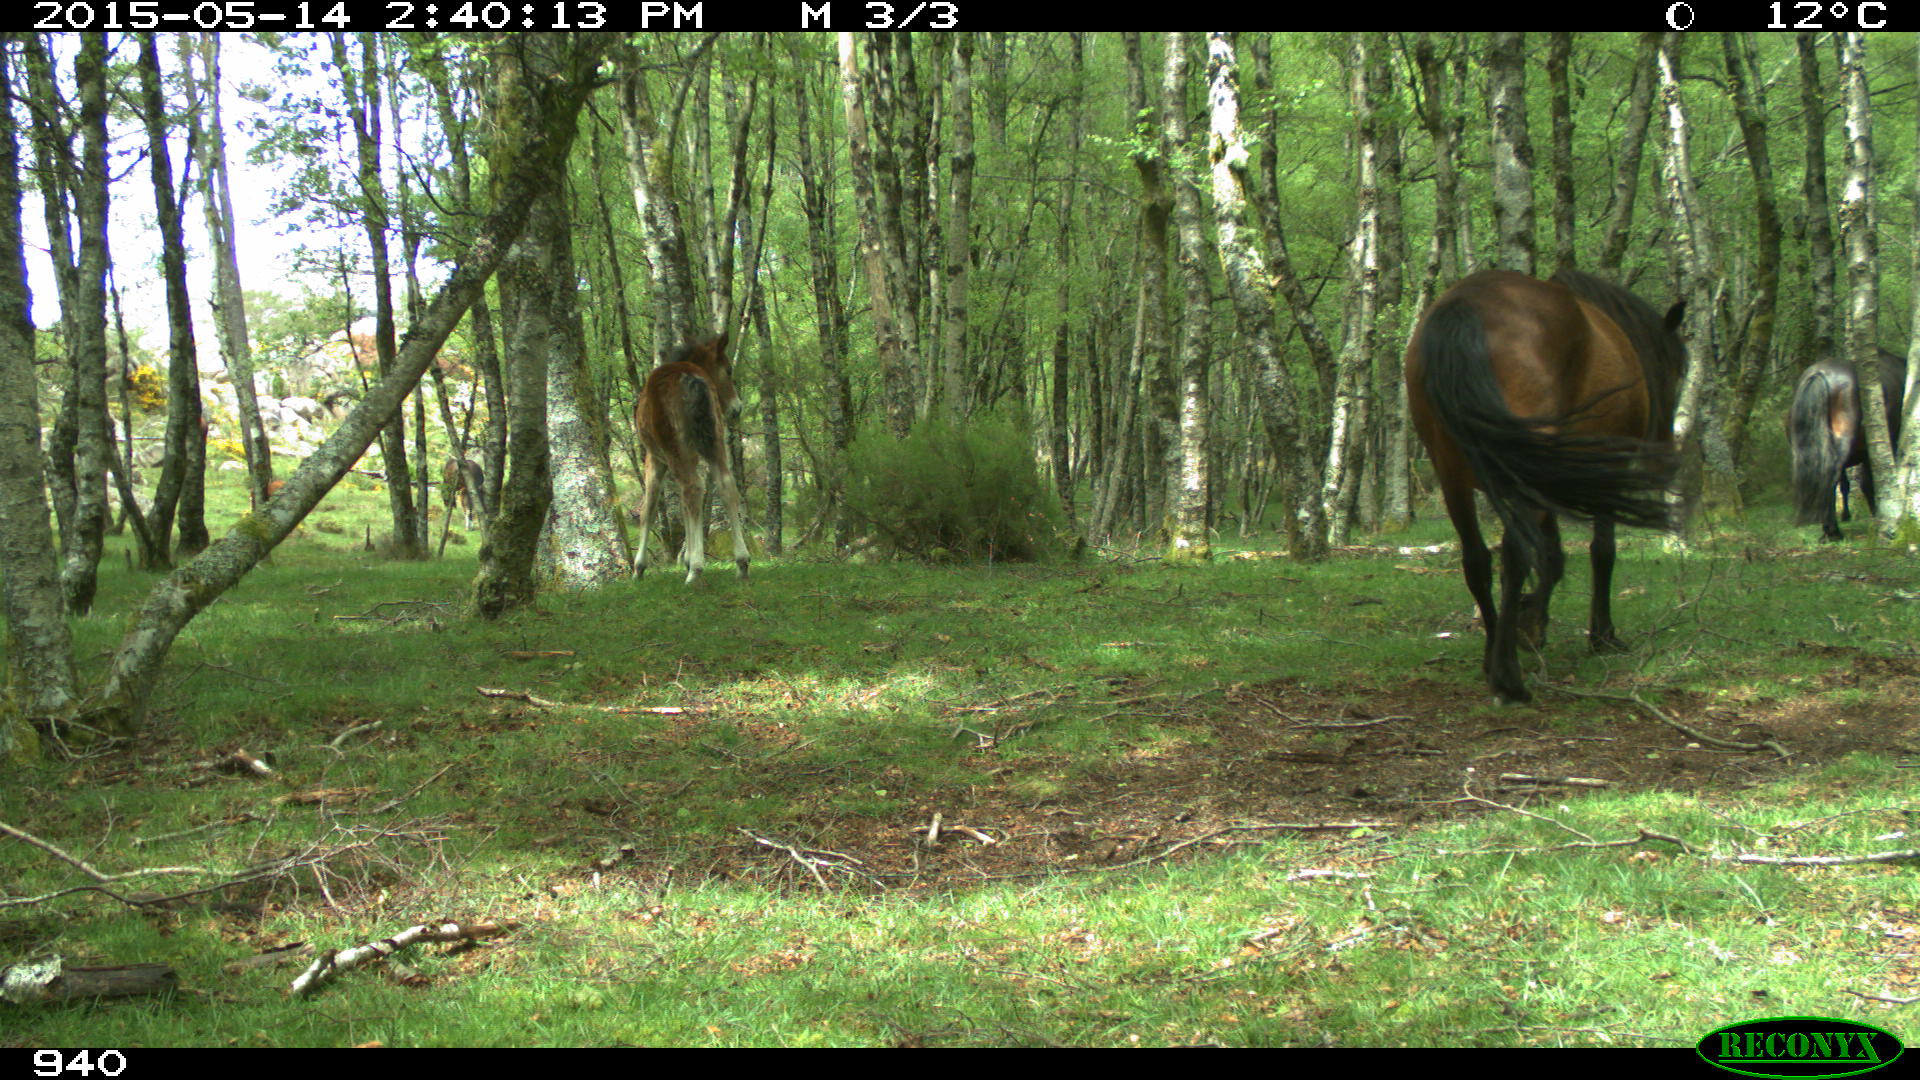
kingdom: Animalia
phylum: Chordata
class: Mammalia
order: Perissodactyla
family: Equidae
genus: Equus
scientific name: Equus caballus
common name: Horse
